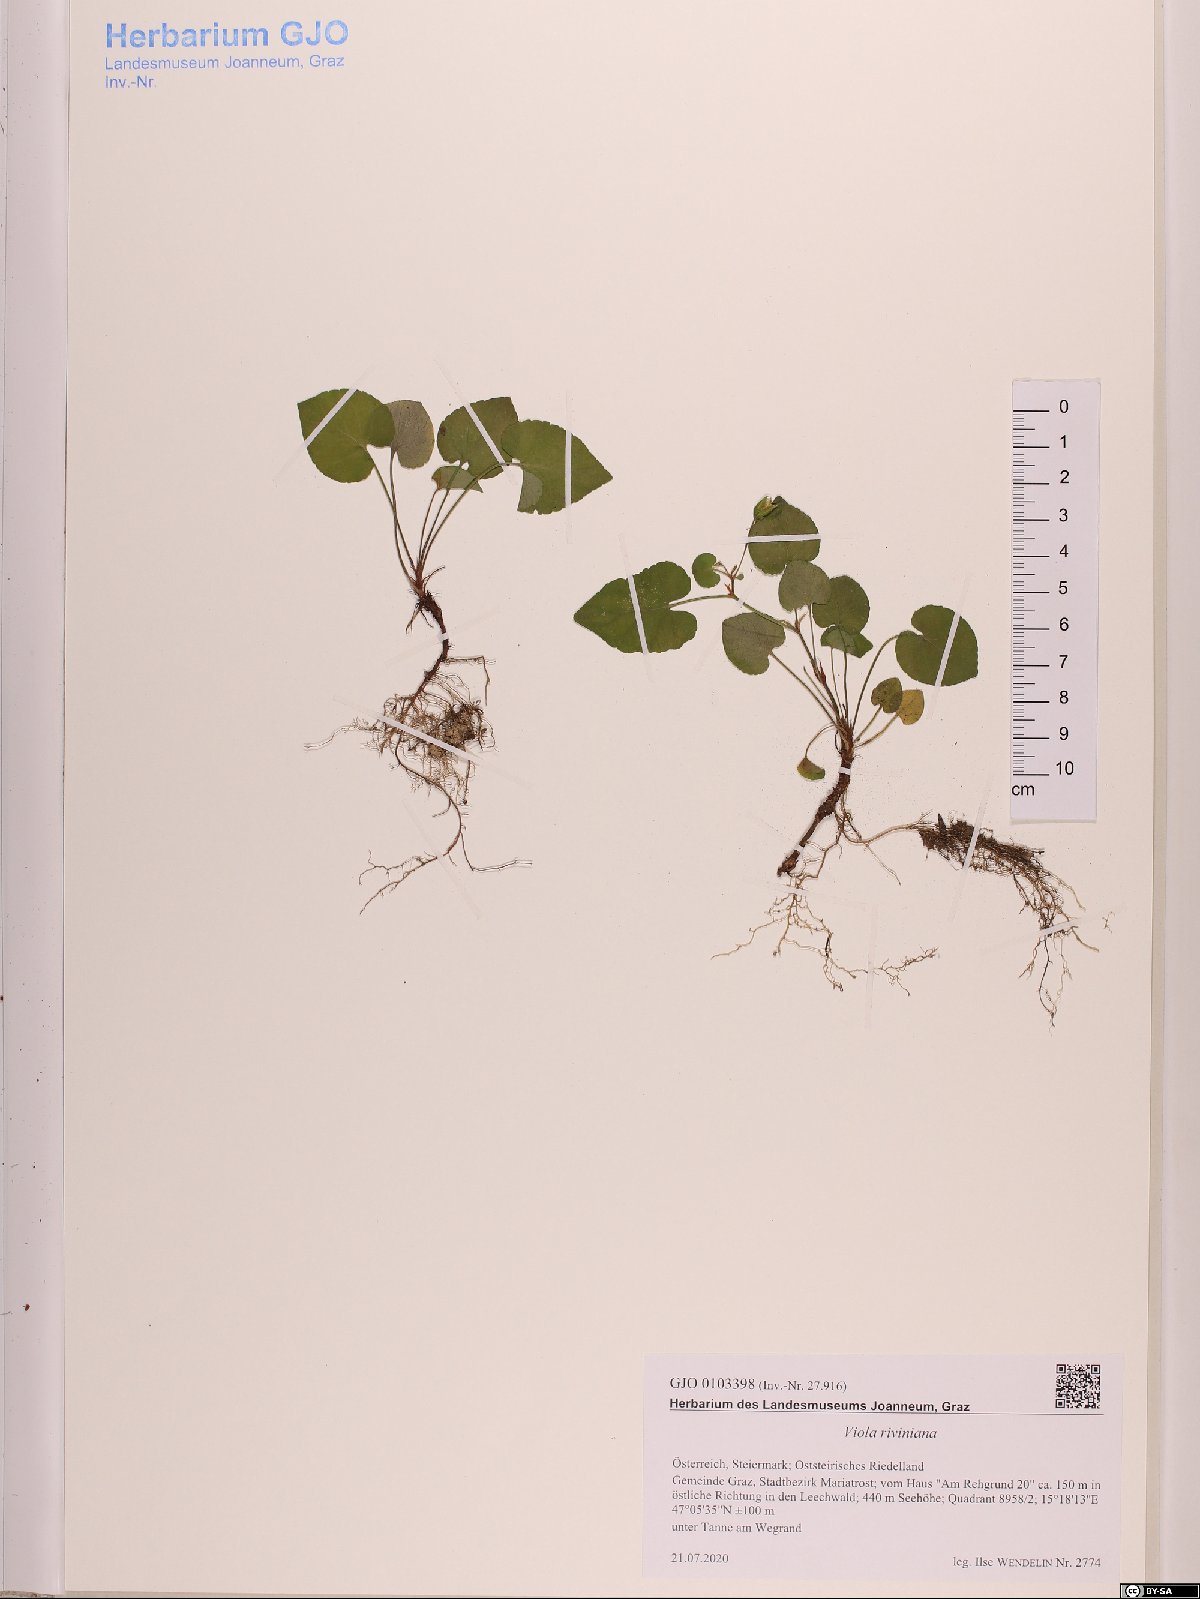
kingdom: Plantae
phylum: Tracheophyta
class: Magnoliopsida
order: Malpighiales
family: Violaceae
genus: Viola
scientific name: Viola riviniana
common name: Common dog-violet
